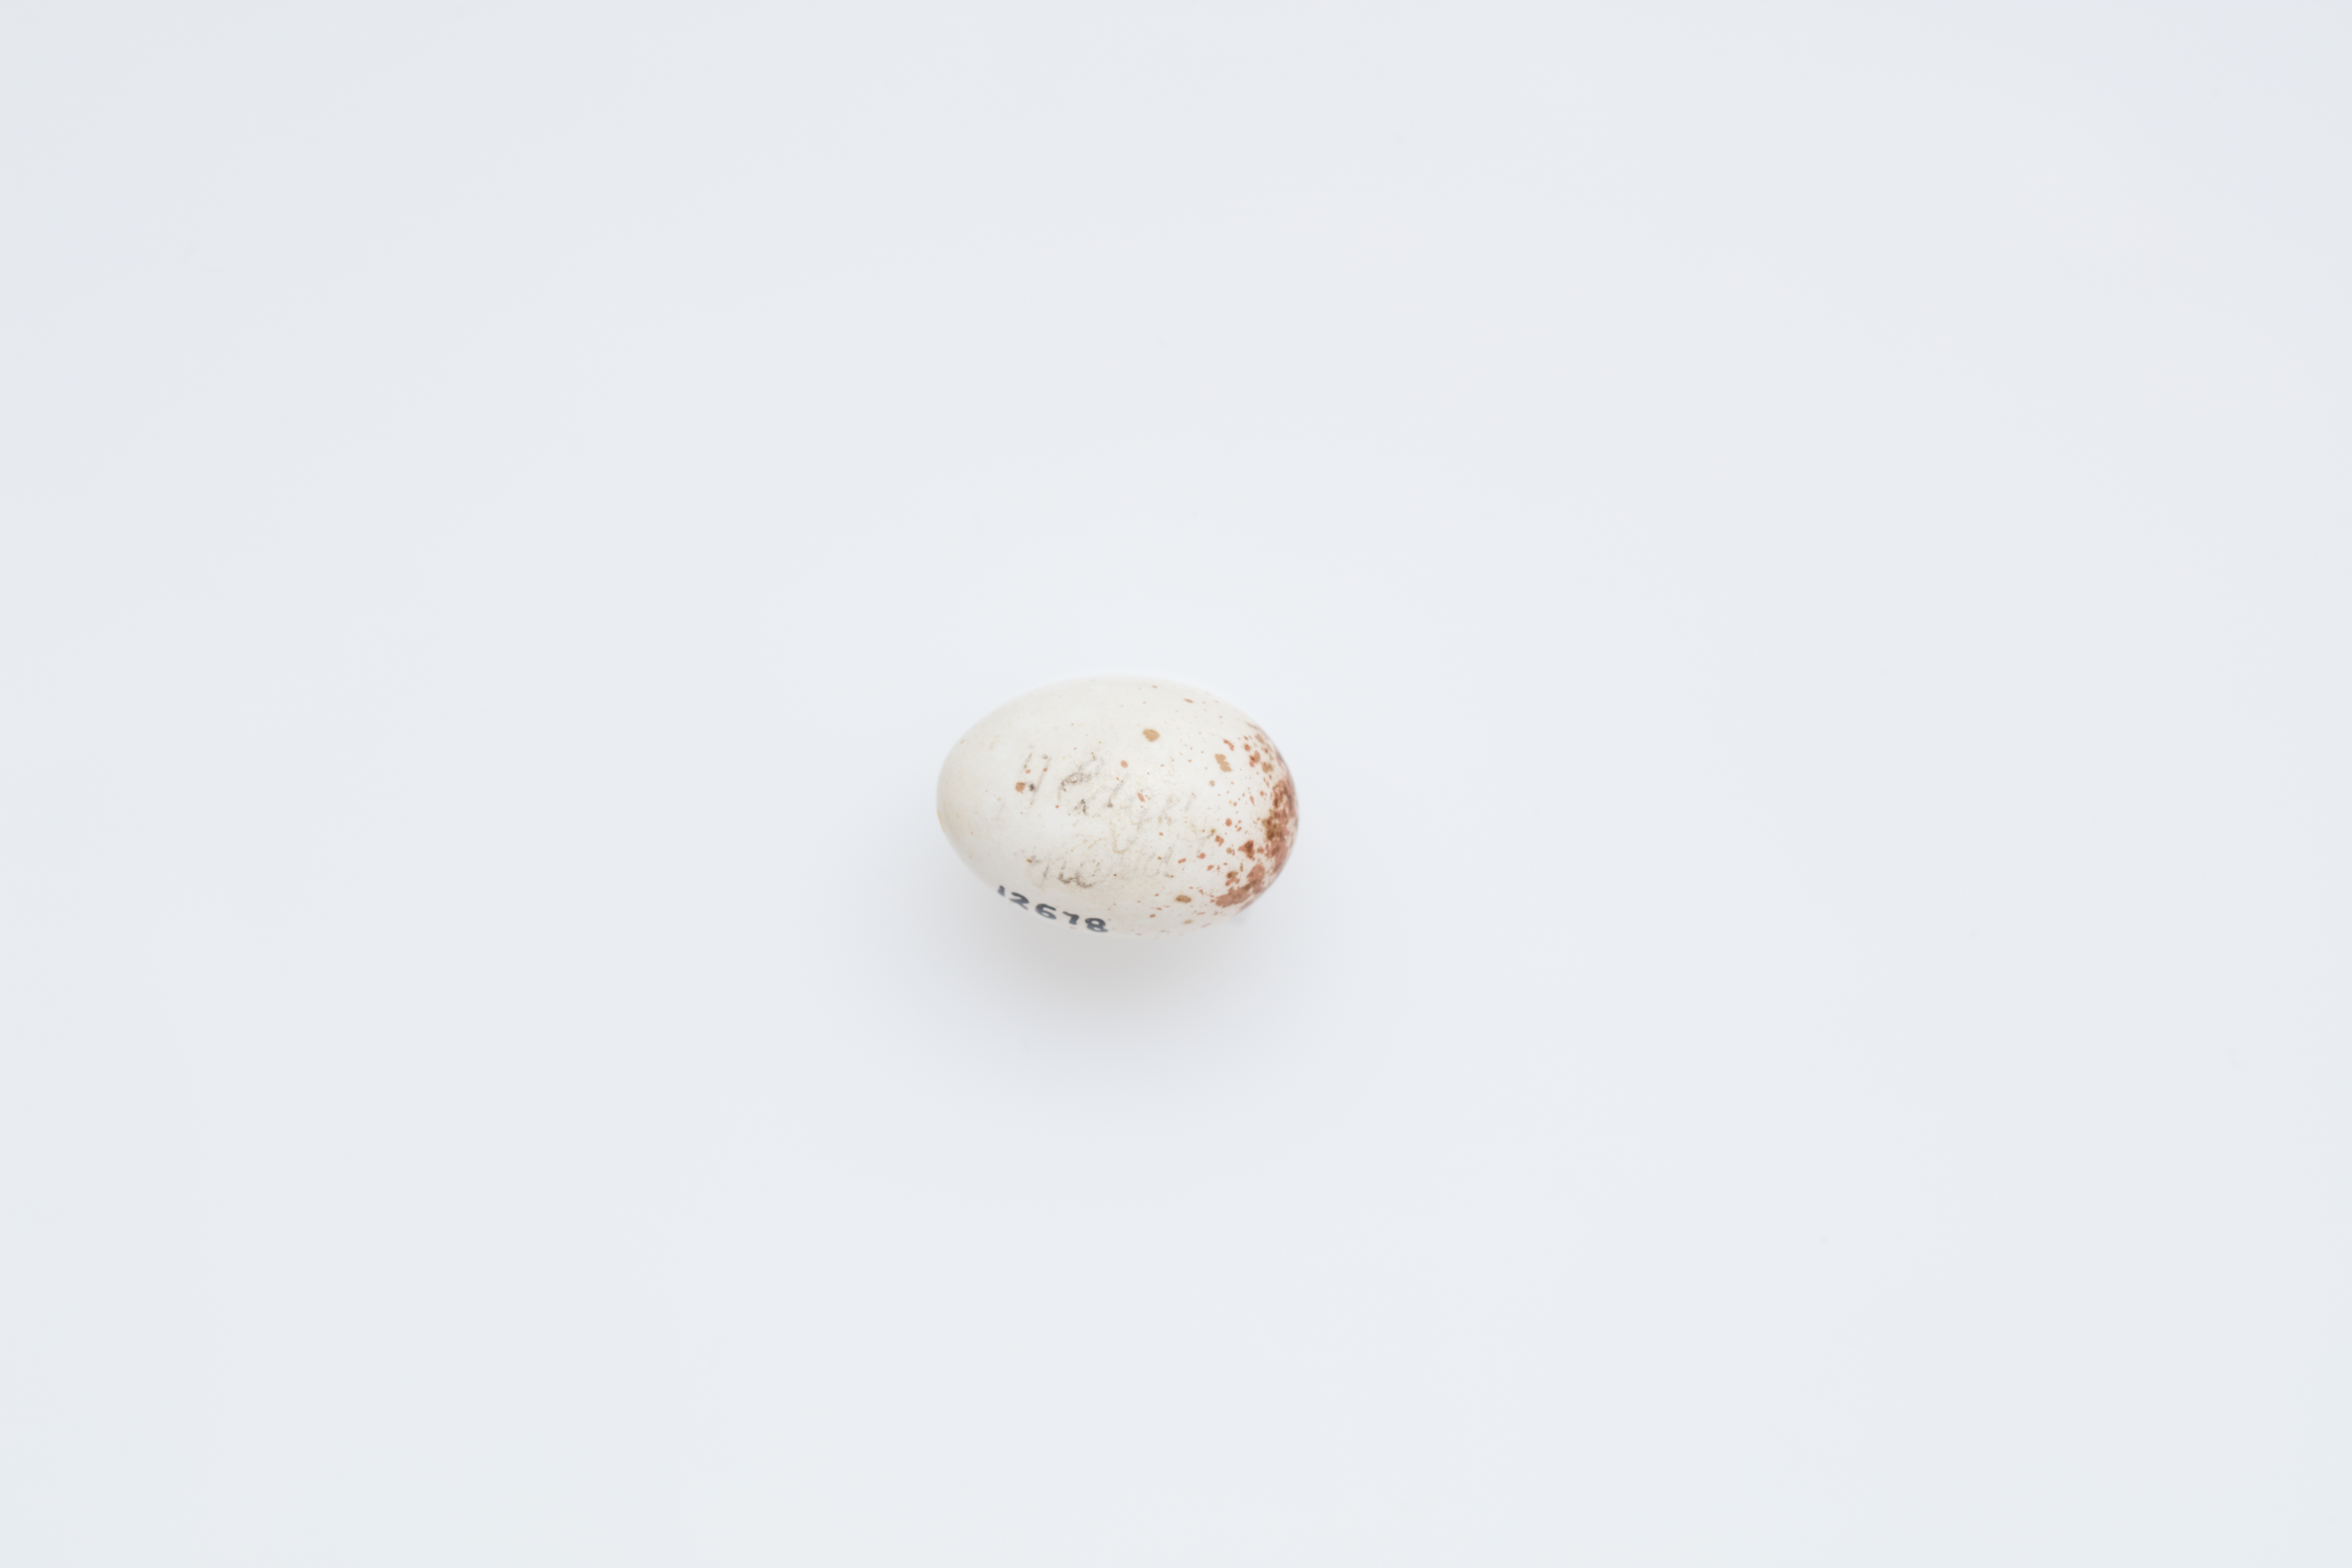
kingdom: Animalia
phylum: Chordata
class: Aves
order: Passeriformes
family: Maluridae
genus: Malurus
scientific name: Malurus cyaneus
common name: Superb fairywren
